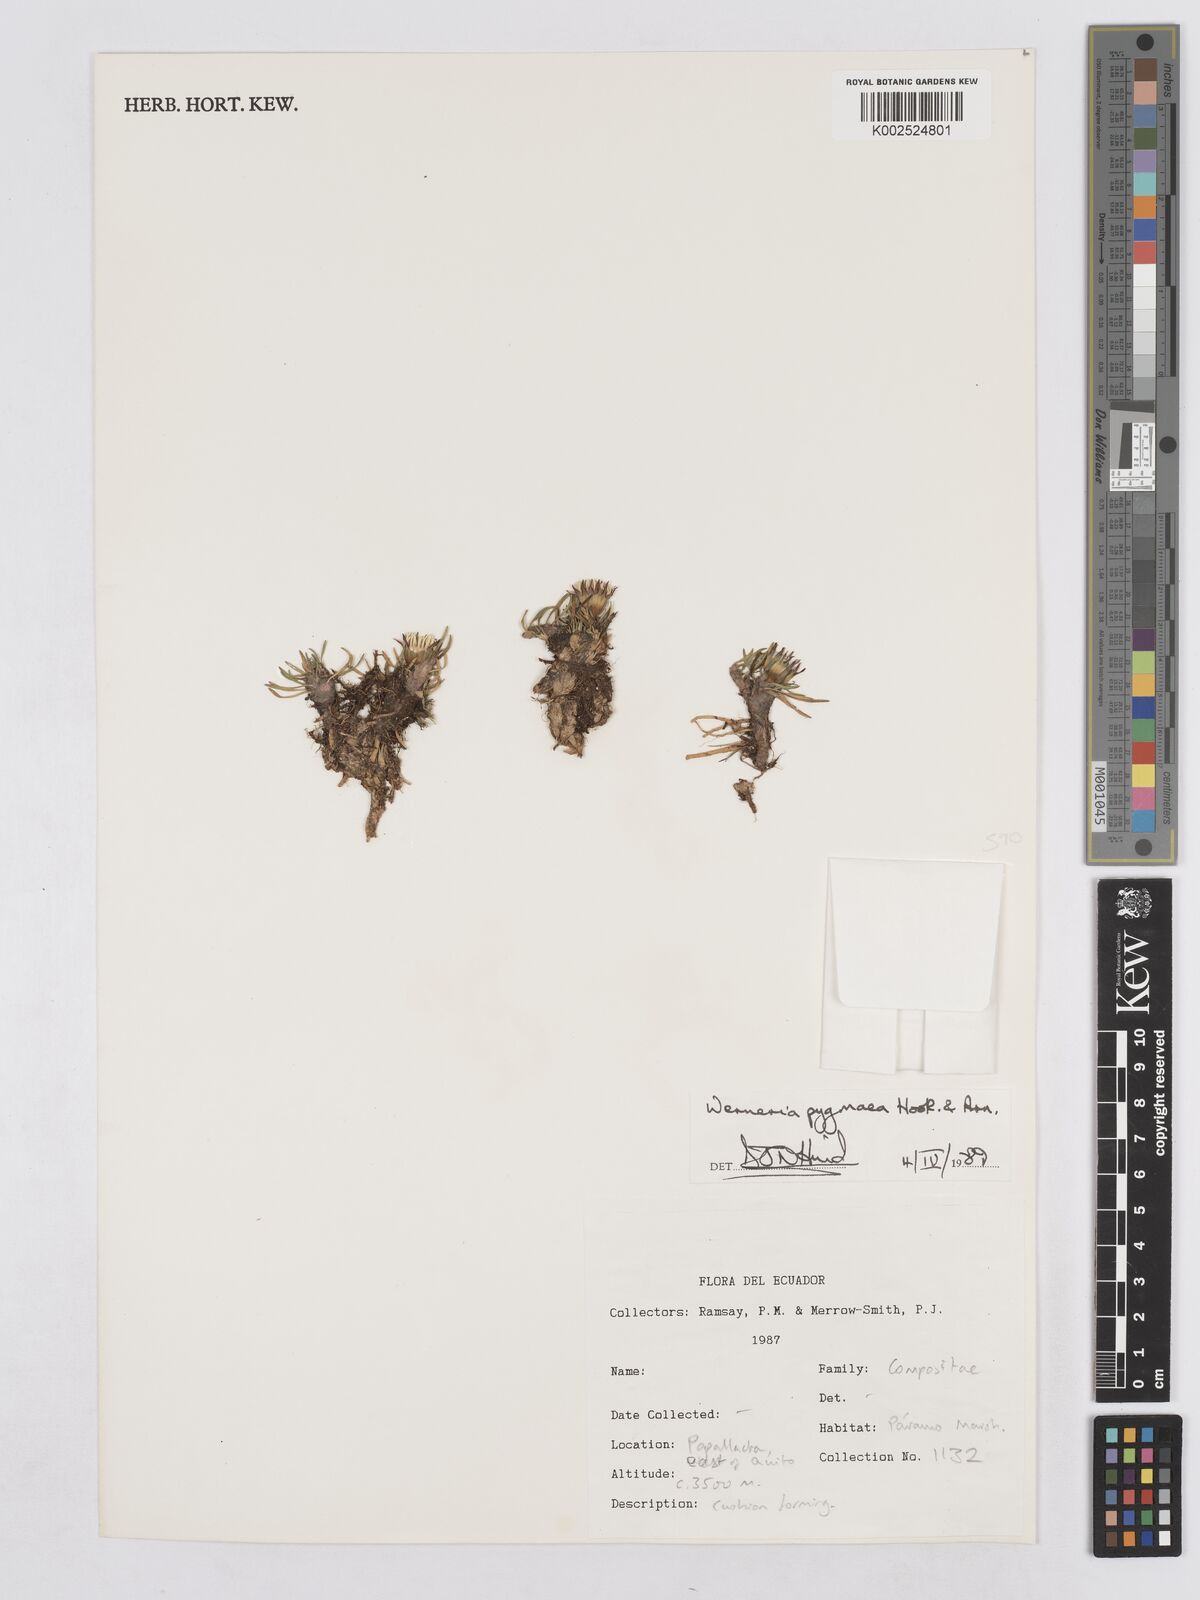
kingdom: Plantae
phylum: Tracheophyta
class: Magnoliopsida
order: Asterales
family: Asteraceae
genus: Rockhausenia
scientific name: Rockhausenia pygmaea
